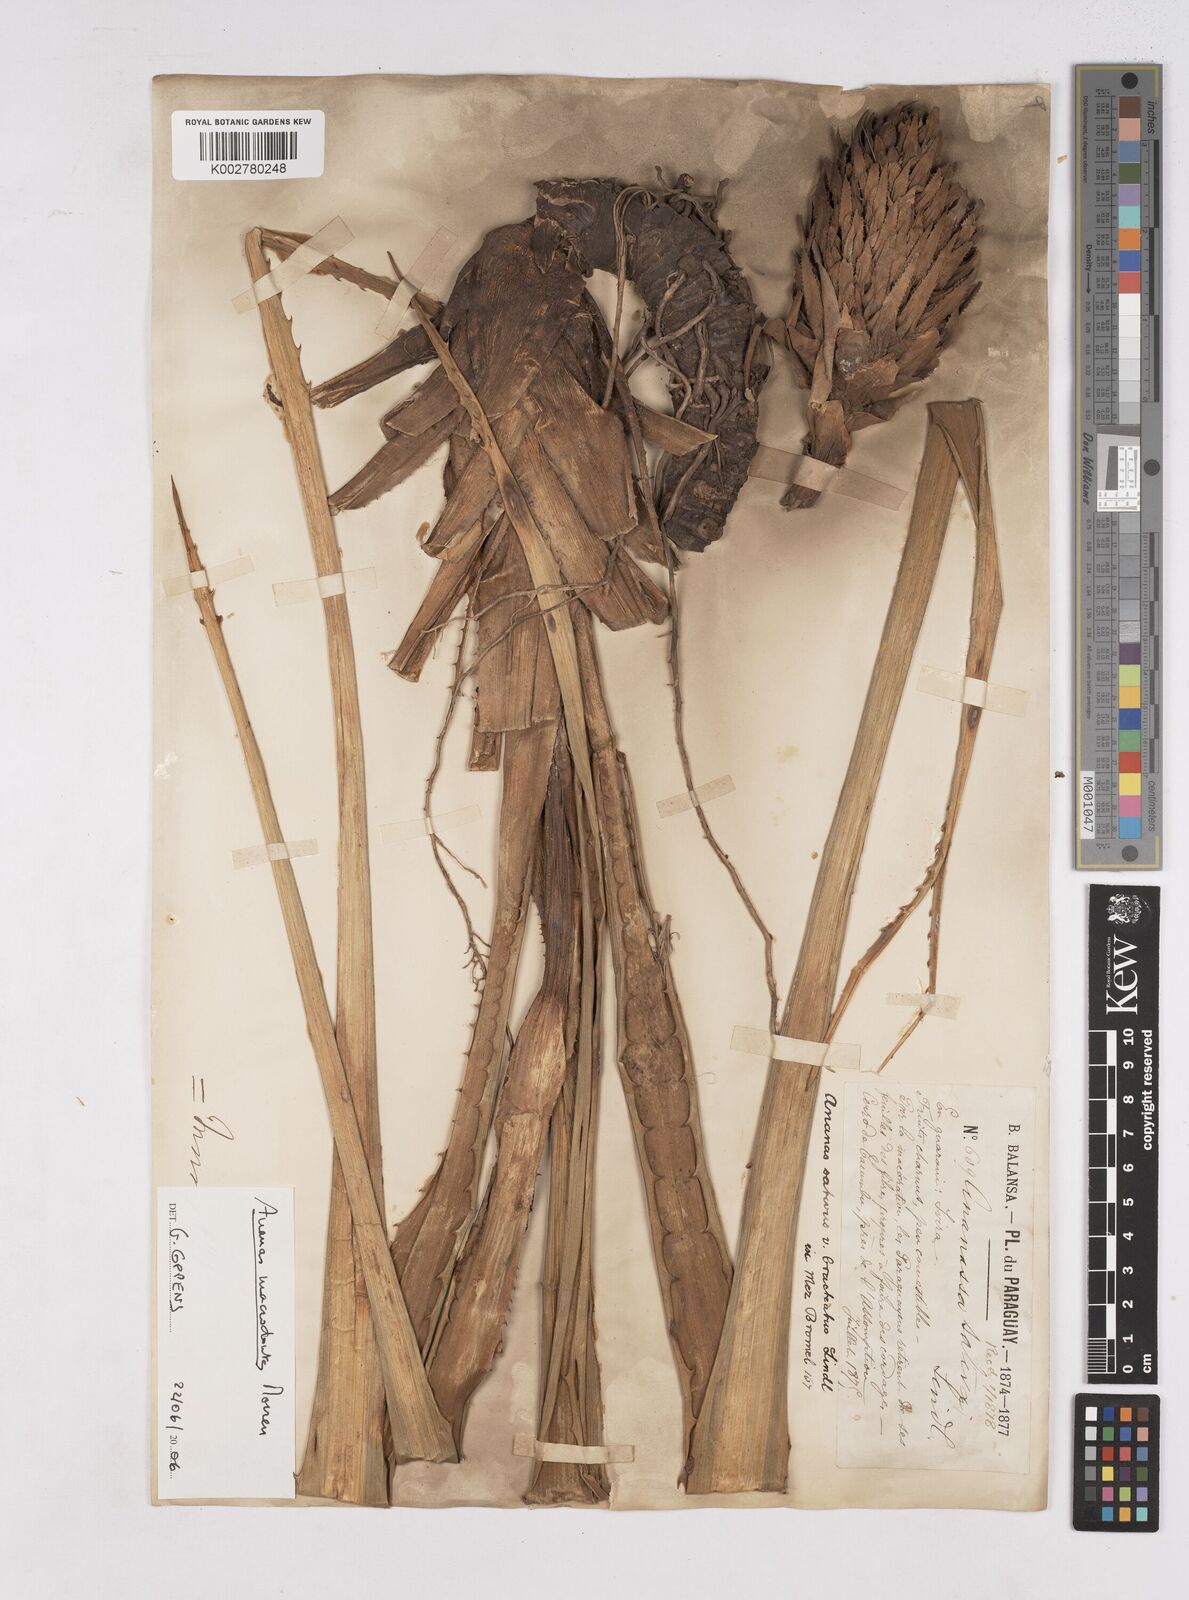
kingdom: Plantae
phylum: Tracheophyta
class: Liliopsida
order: Poales
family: Bromeliaceae
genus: Ananas
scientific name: Ananas comosus
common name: Pineapple
